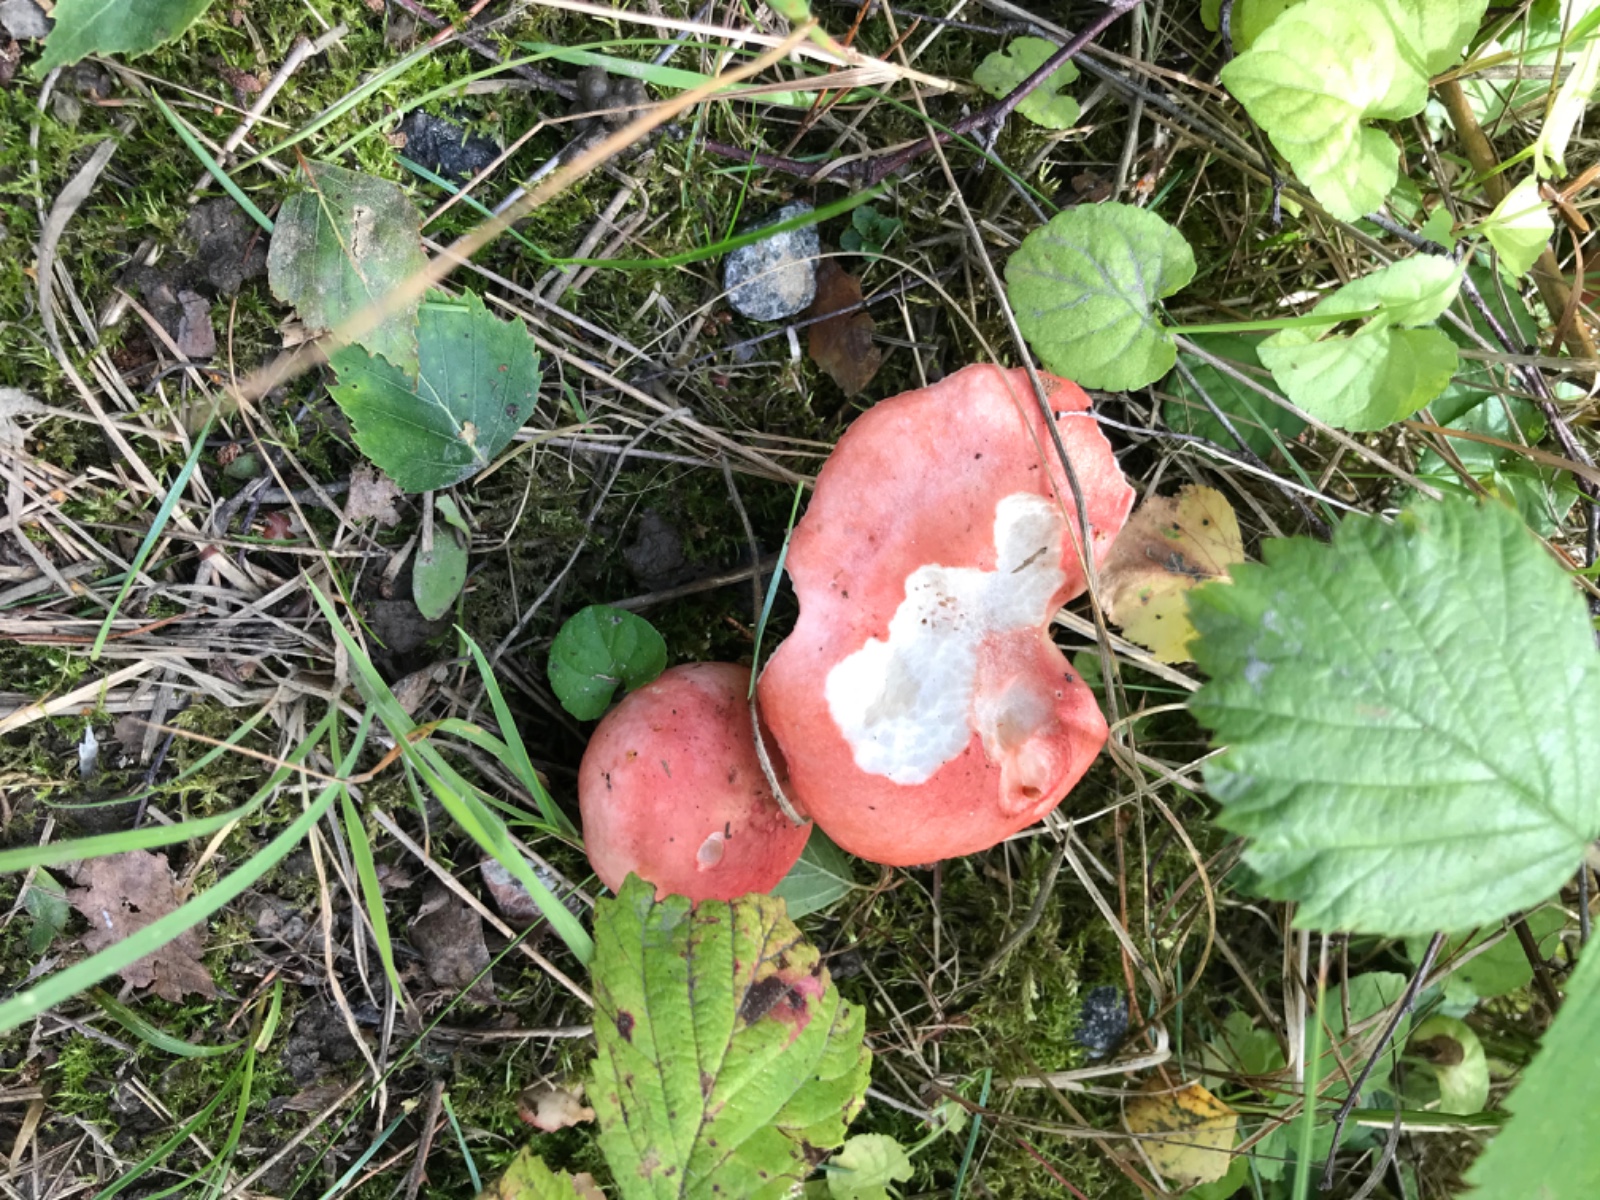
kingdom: Fungi
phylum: Basidiomycota
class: Agaricomycetes
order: Russulales
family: Russulaceae
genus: Russula
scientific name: Russula emetica
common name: stor gift-skørhat
